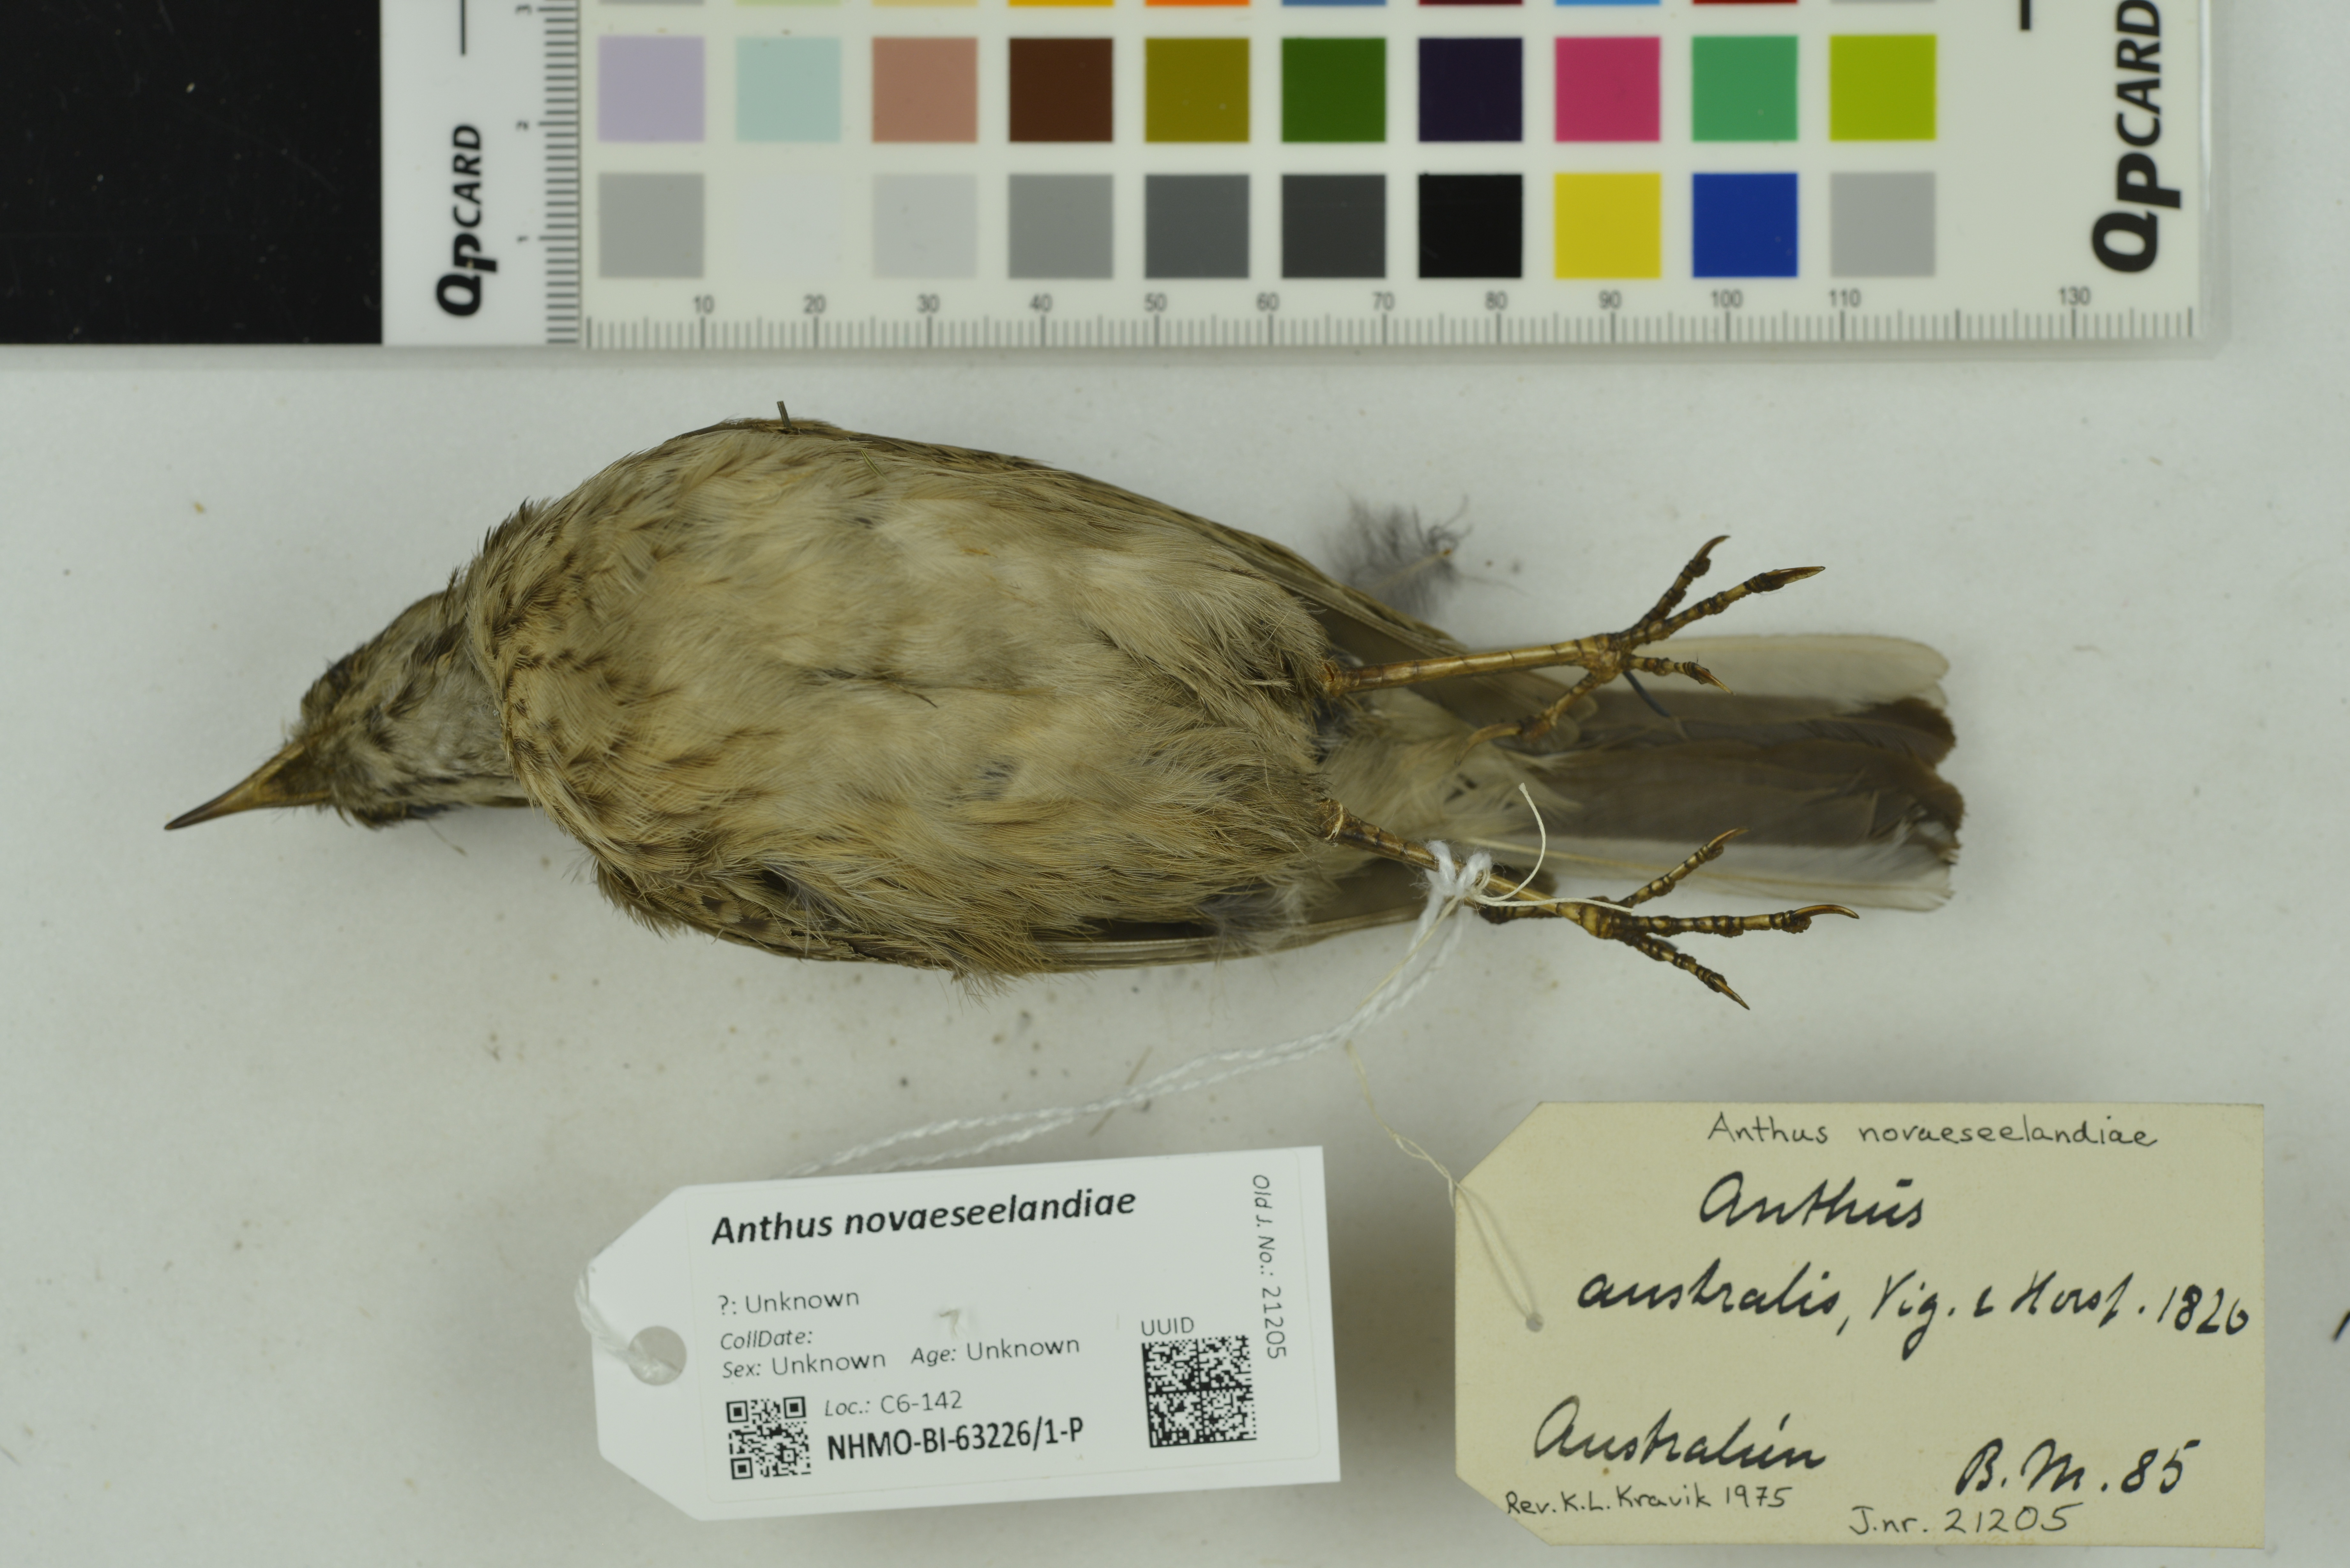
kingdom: Animalia
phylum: Chordata
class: Aves
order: Passeriformes
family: Motacillidae
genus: Anthus
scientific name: Anthus novaeseelandiae
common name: New zealand pipit
